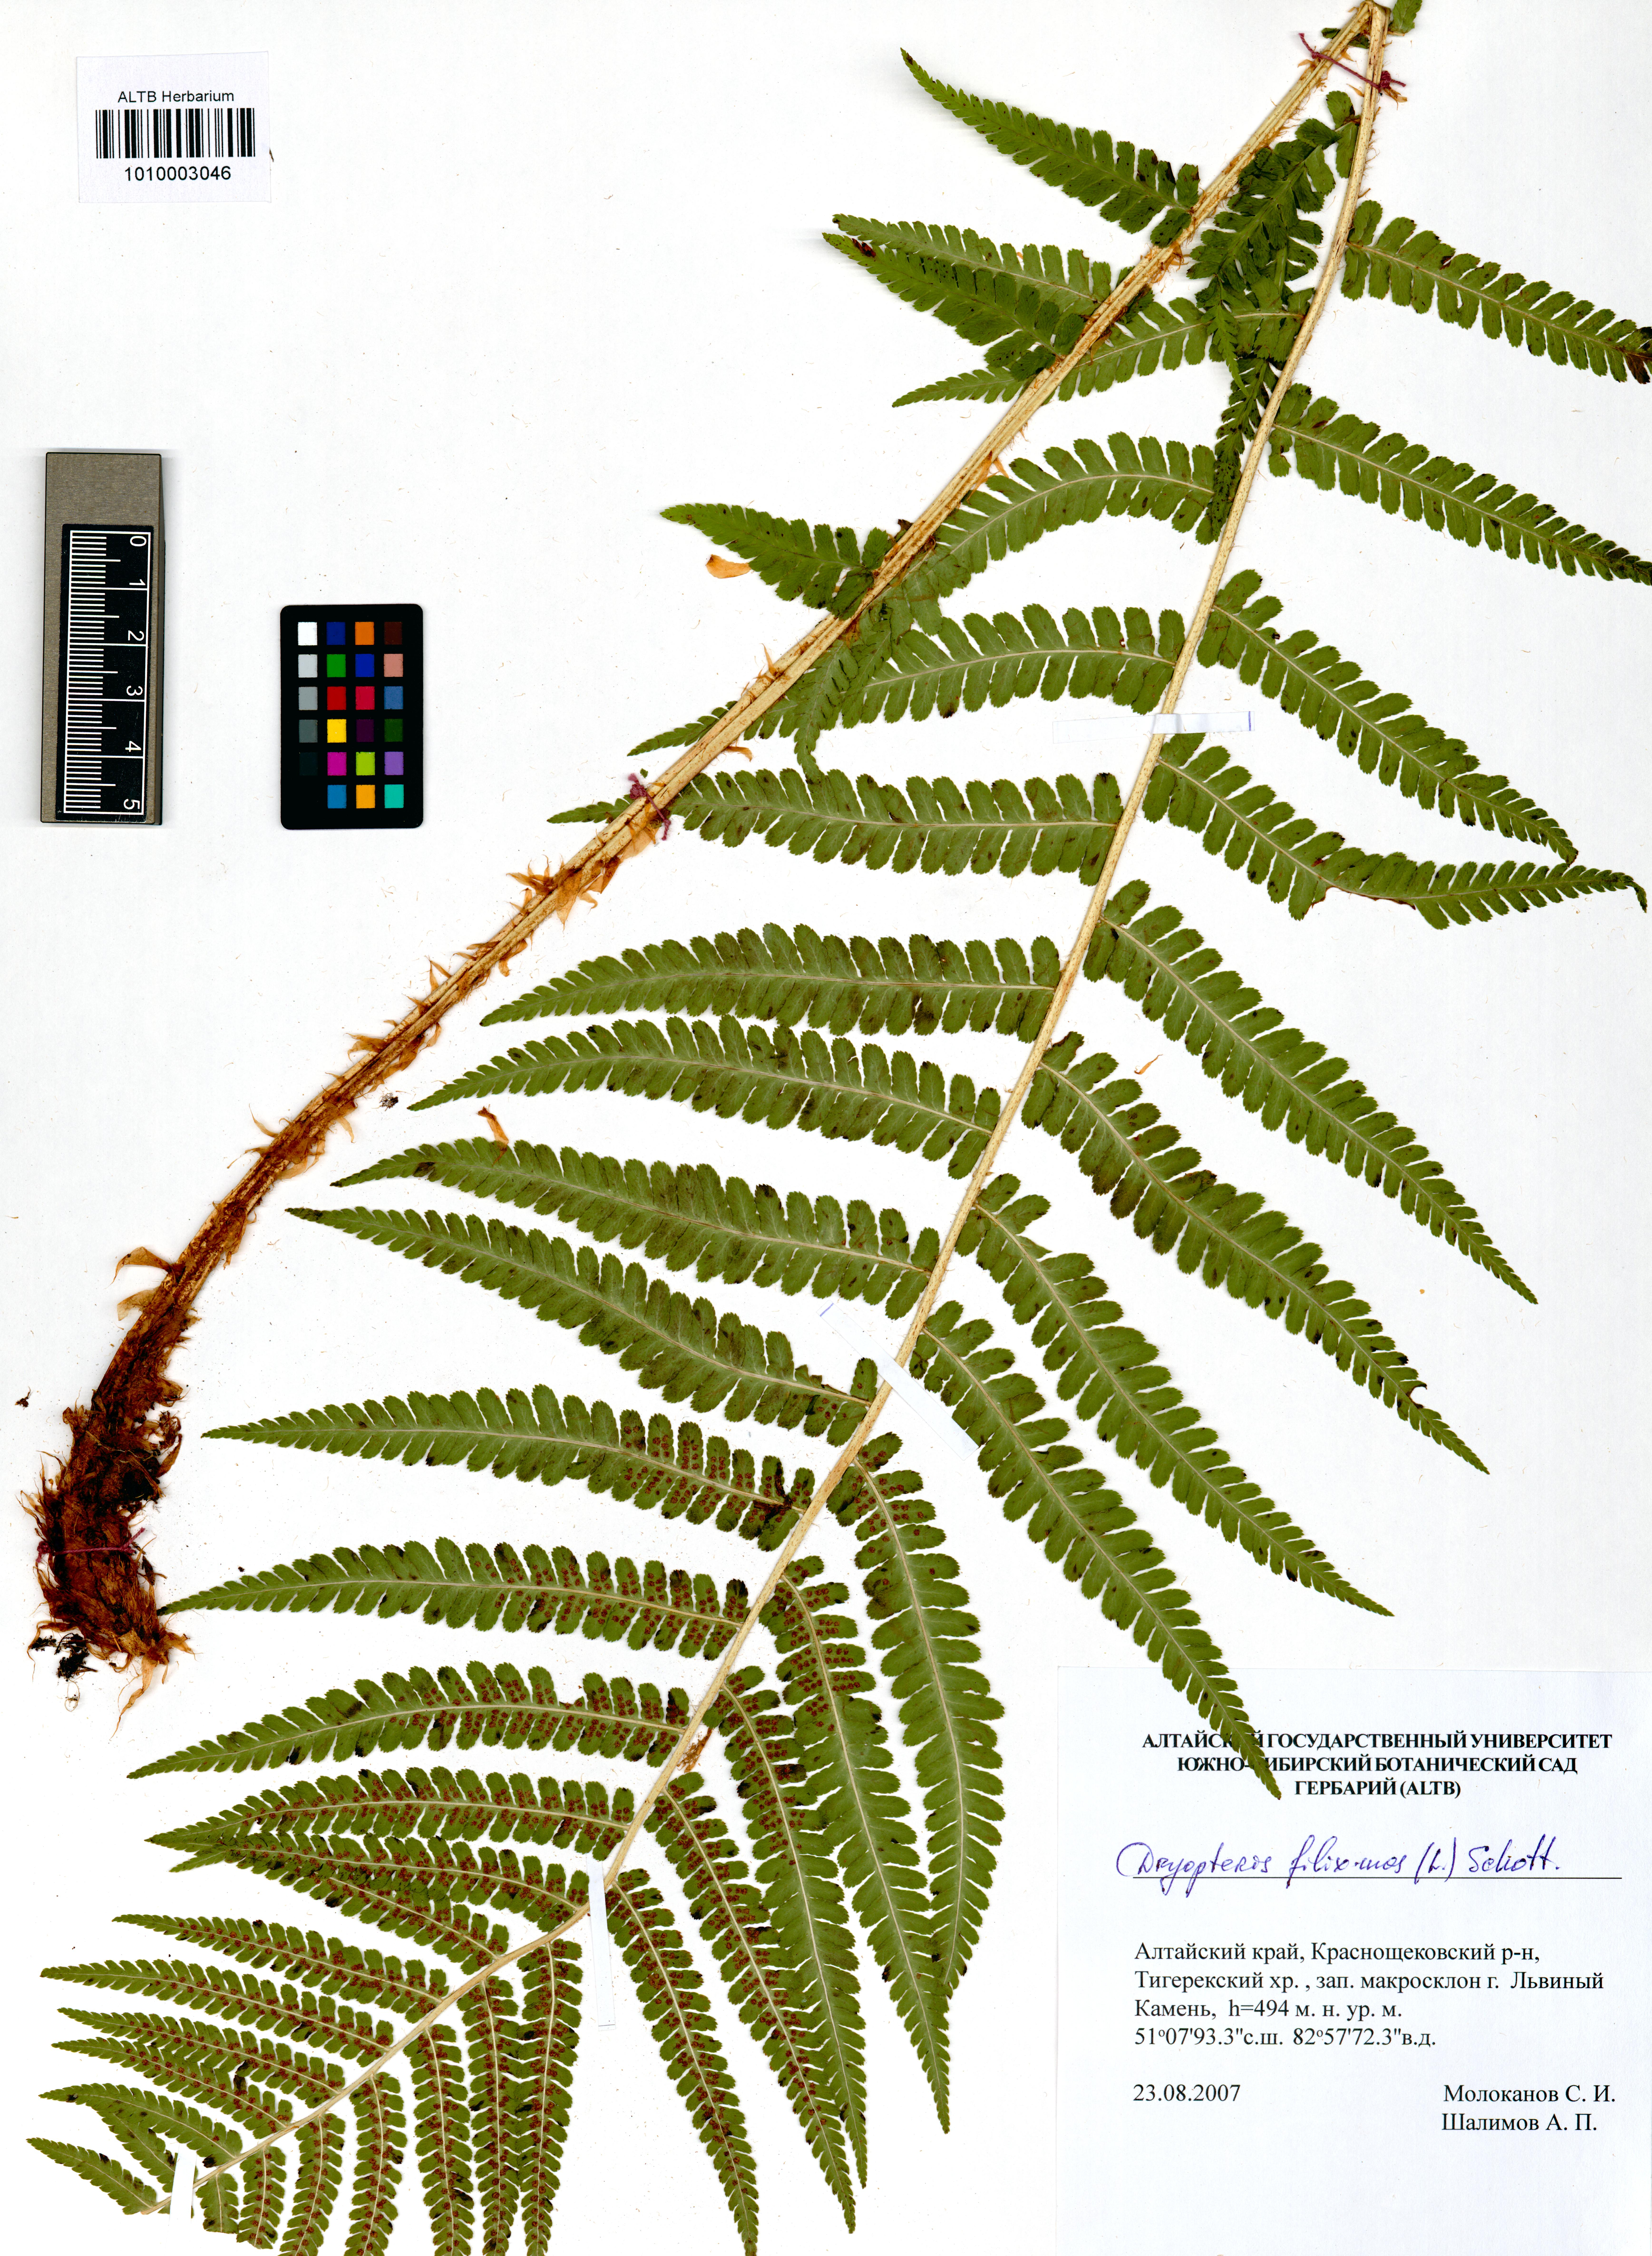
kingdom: Plantae
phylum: Tracheophyta
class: Polypodiopsida
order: Polypodiales
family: Dryopteridaceae
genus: Dryopteris
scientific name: Dryopteris filix-mas
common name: Male fern
